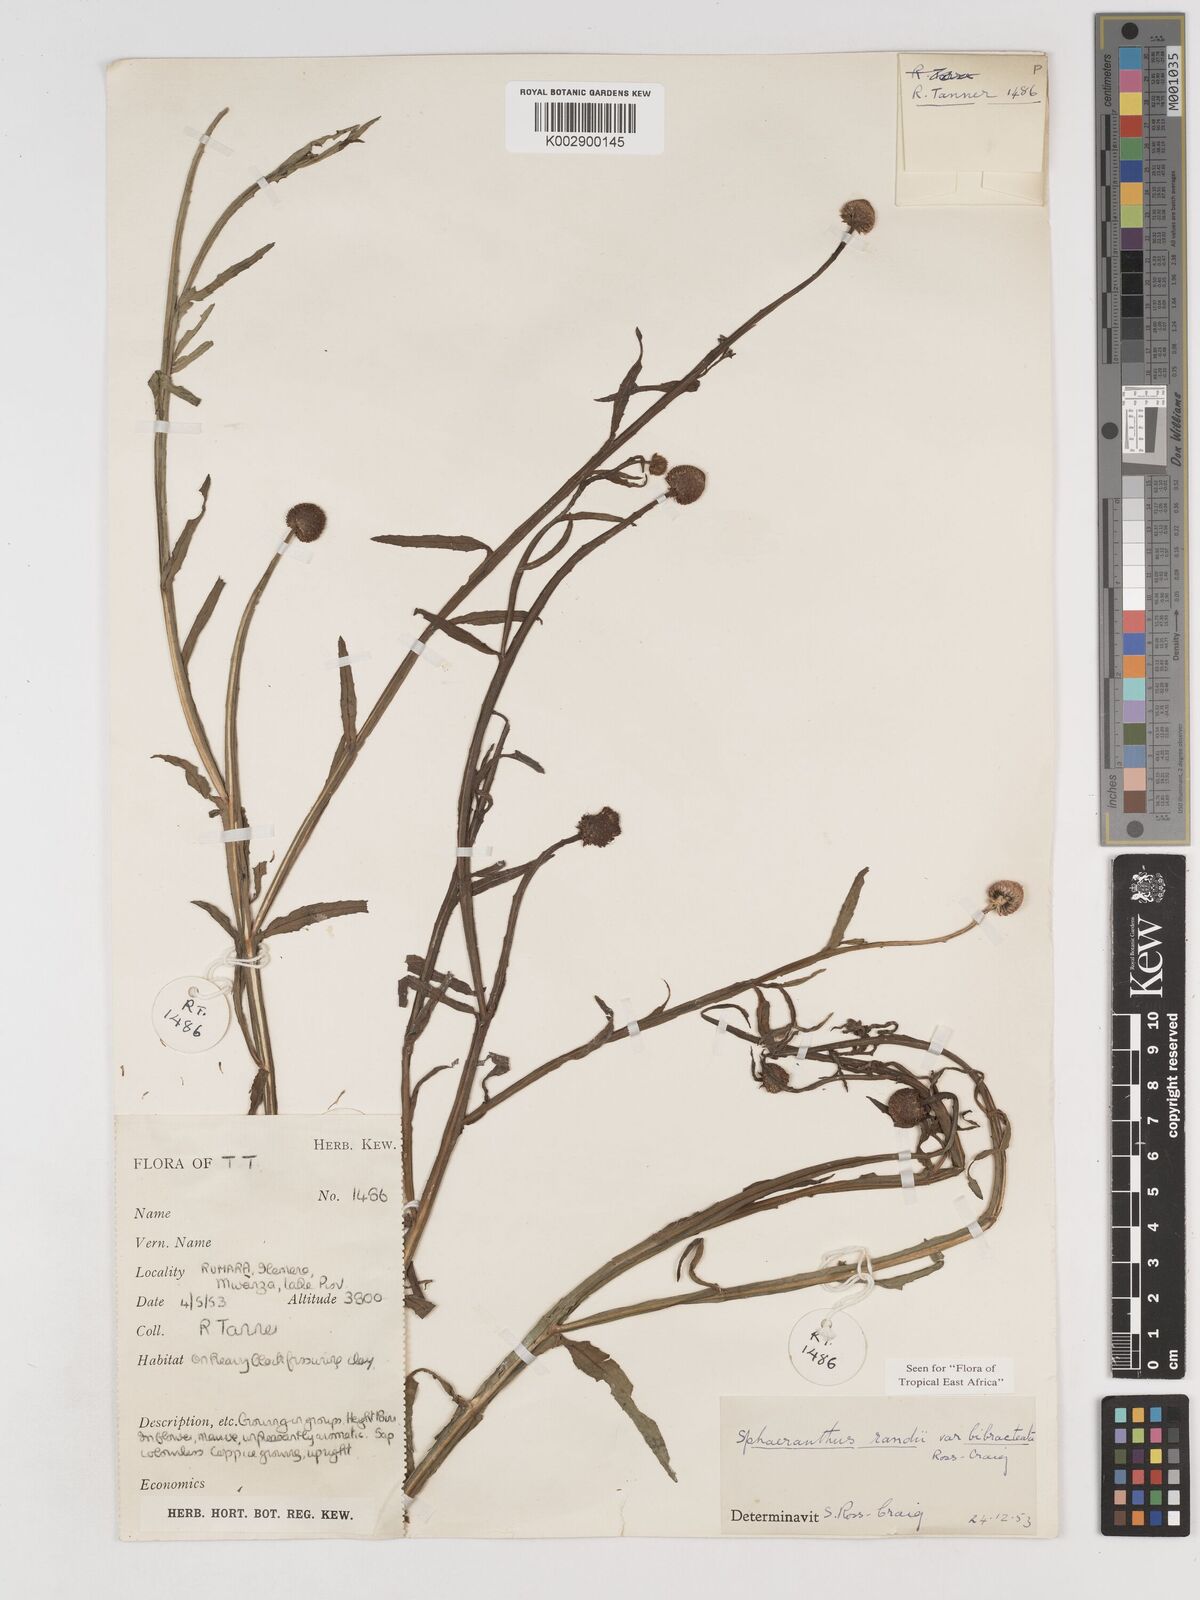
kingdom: Plantae
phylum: Tracheophyta
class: Magnoliopsida
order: Asterales
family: Asteraceae
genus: Sphaeranthus
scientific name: Sphaeranthus randii
